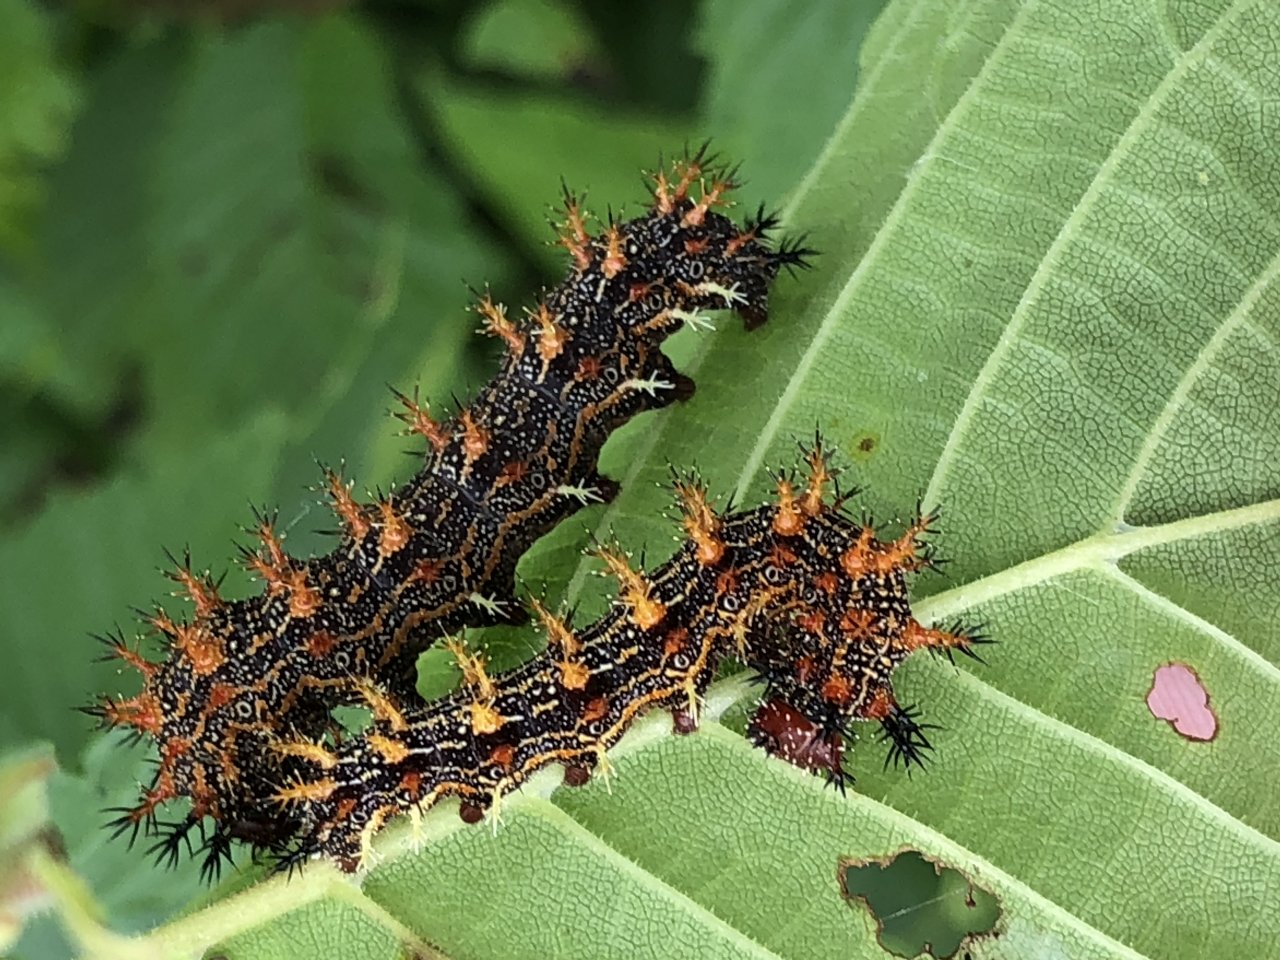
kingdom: Animalia
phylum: Arthropoda
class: Insecta
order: Lepidoptera
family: Nymphalidae
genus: Polygonia
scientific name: Polygonia interrogationis
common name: Question Mark
